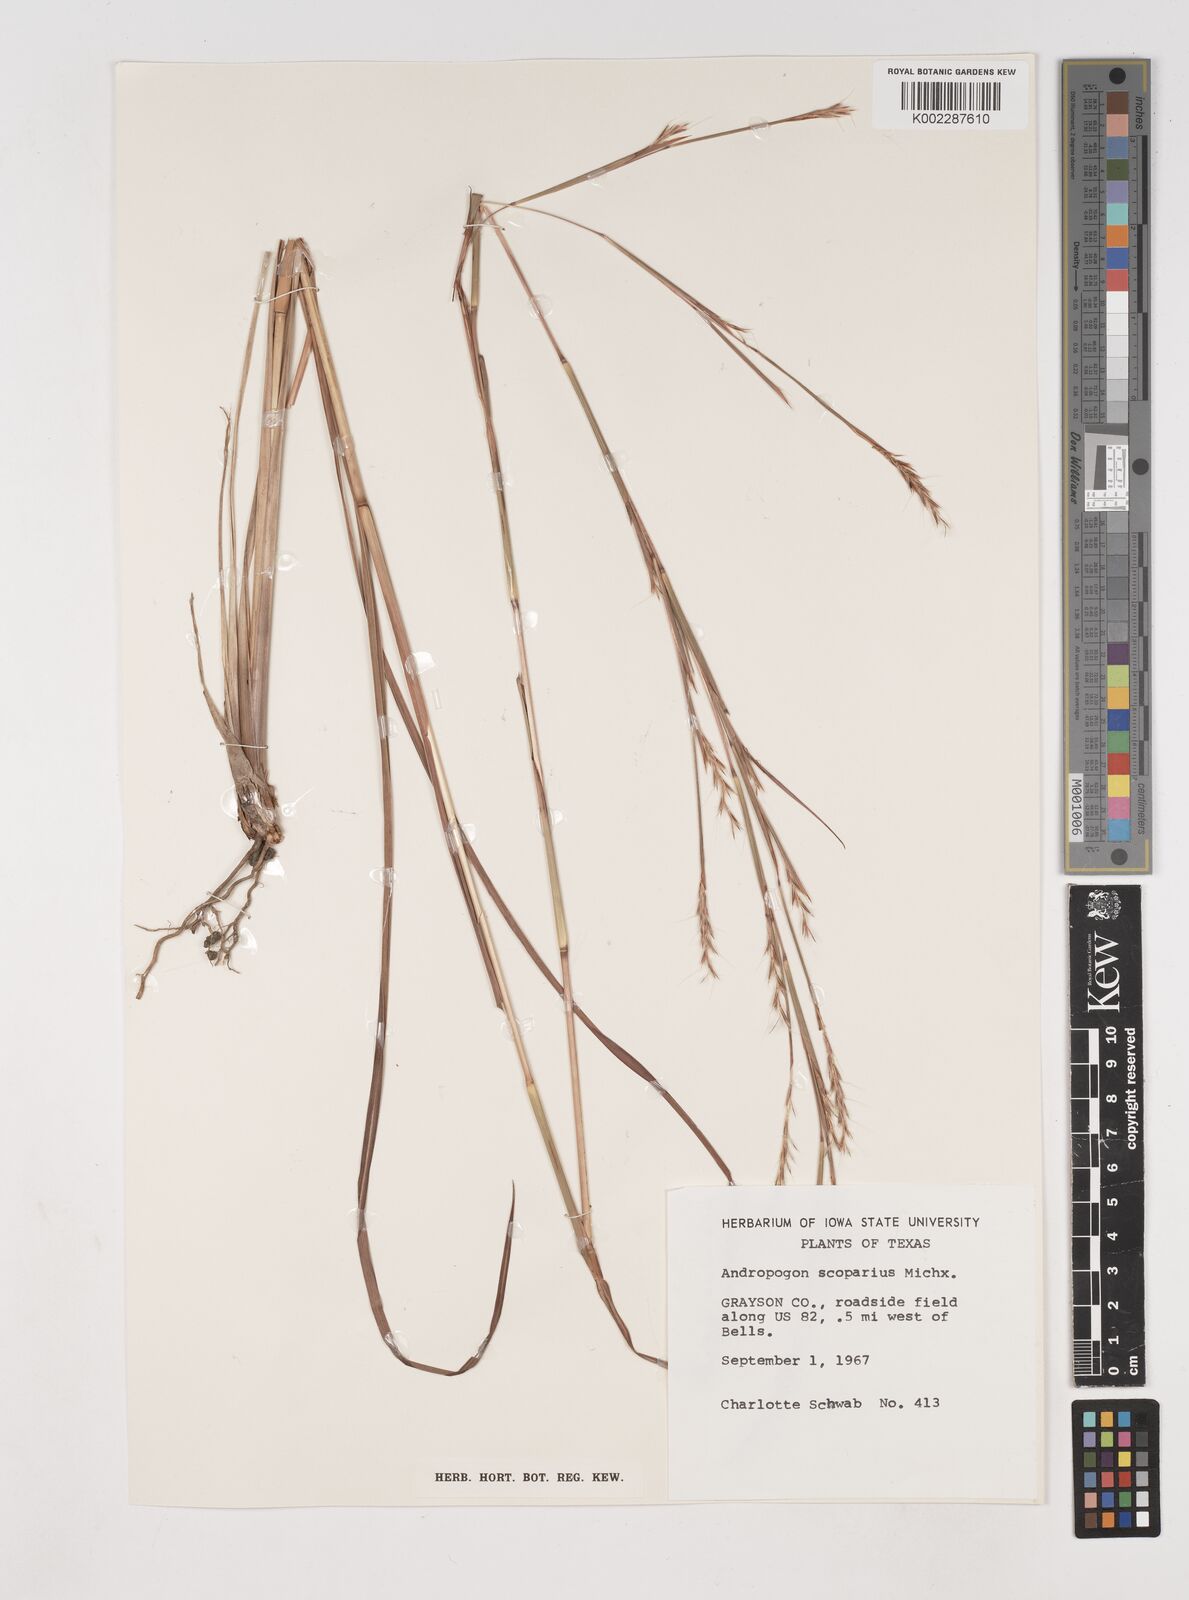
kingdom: Plantae
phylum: Tracheophyta
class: Liliopsida
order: Poales
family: Poaceae
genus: Schizachyrium
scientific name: Schizachyrium scoparium
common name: Little bluestem
